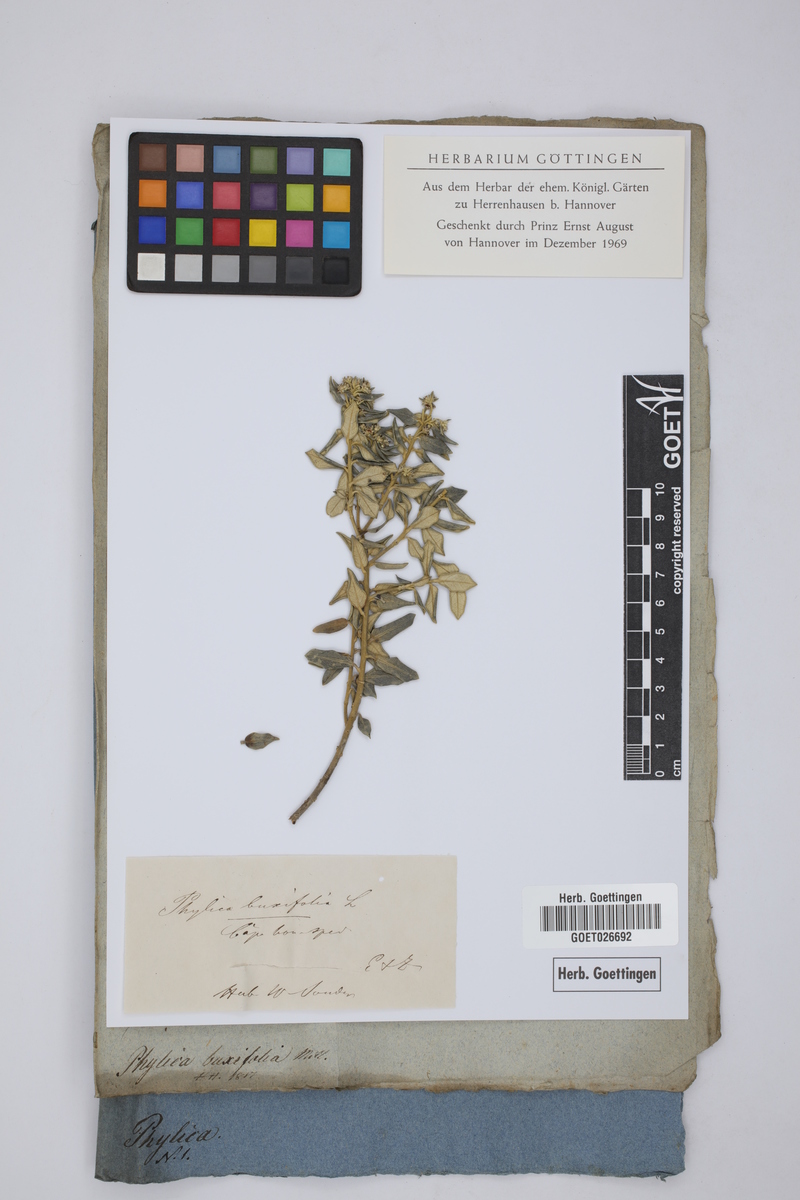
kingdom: Plantae
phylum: Tracheophyta
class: Magnoliopsida
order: Rosales
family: Rhamnaceae
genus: Phylica
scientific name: Phylica buxifolia
